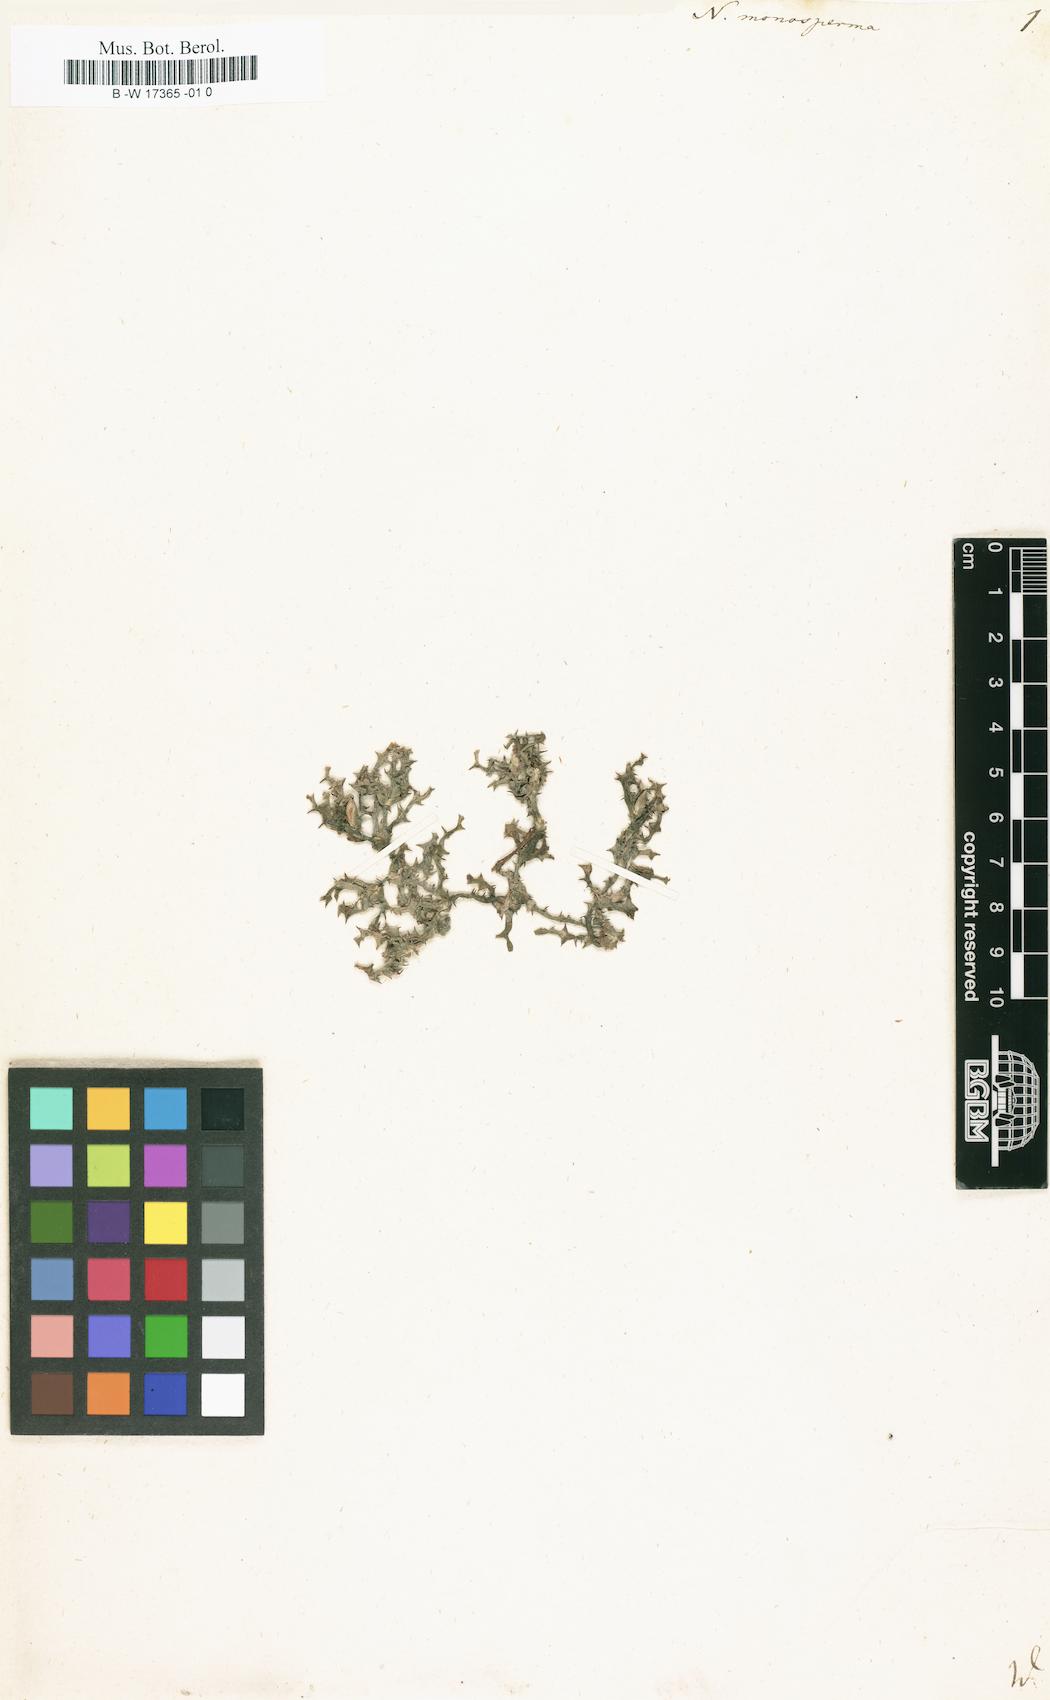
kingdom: Plantae
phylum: Tracheophyta
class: Liliopsida
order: Alismatales
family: Hydrocharitaceae
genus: Najas
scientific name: Najas major
